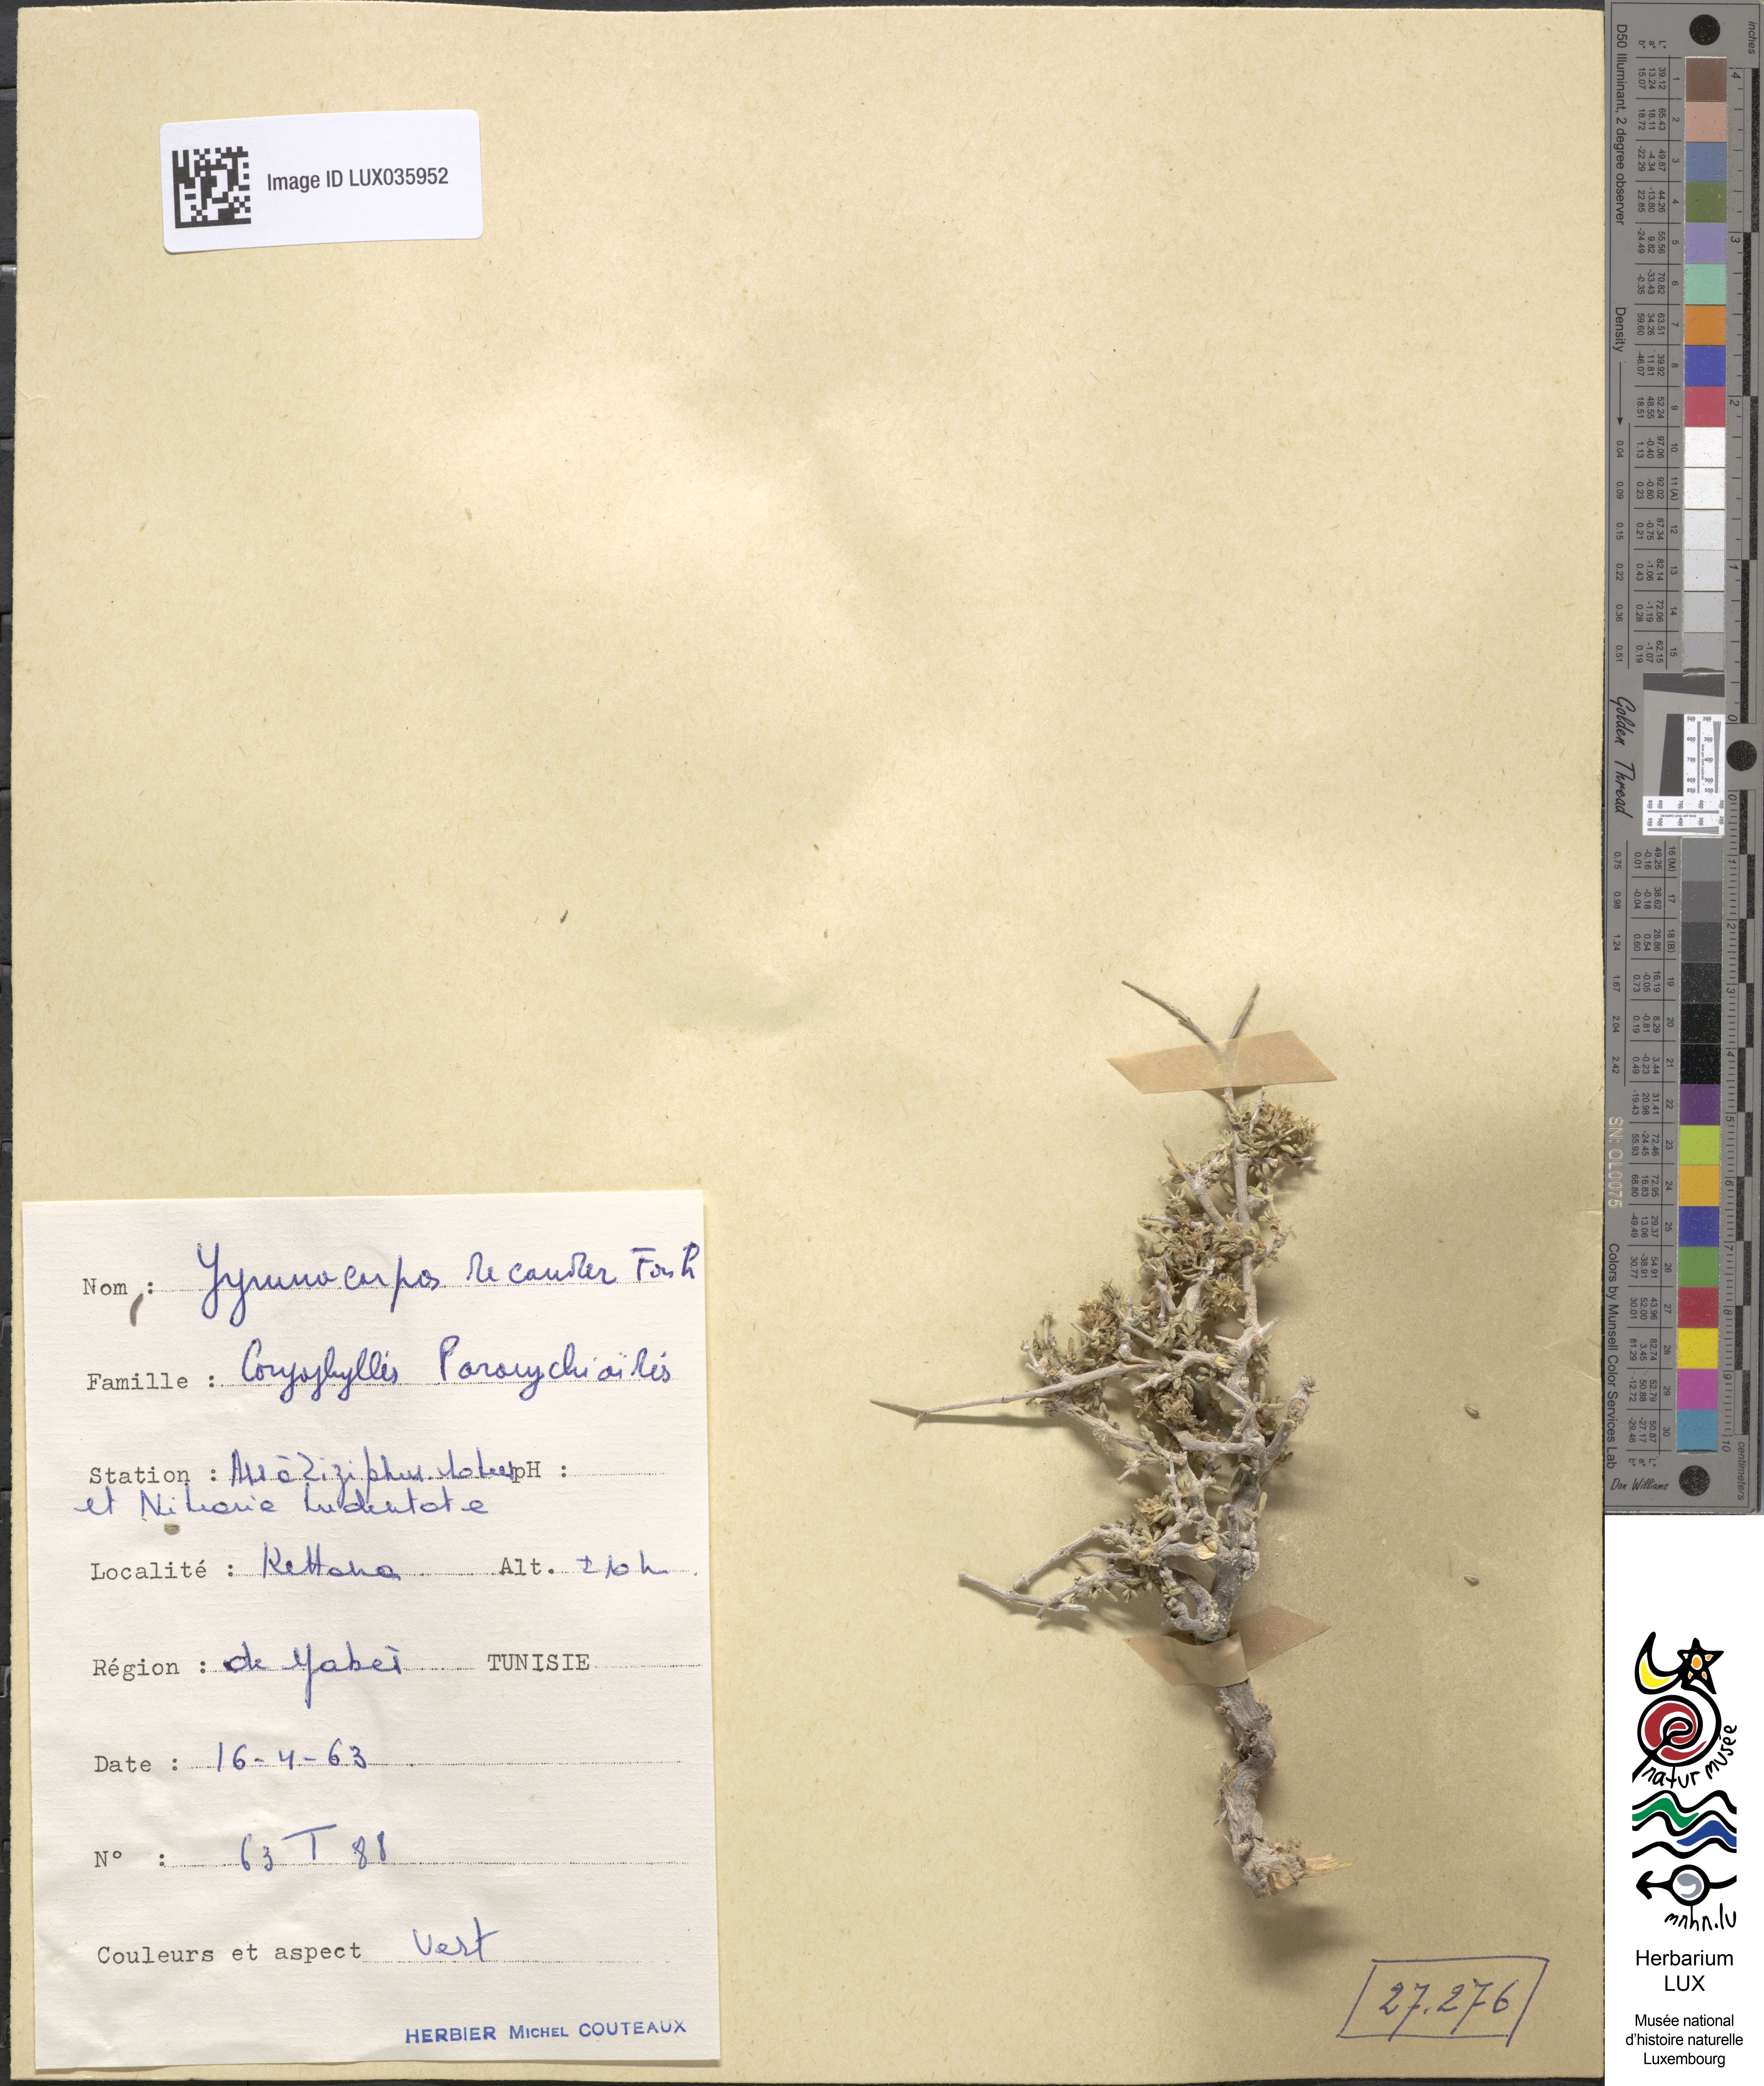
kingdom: Plantae
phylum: Tracheophyta
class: Magnoliopsida
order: Caryophyllales
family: Caryophyllaceae
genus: Gymnocarpos
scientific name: Gymnocarpos decander
